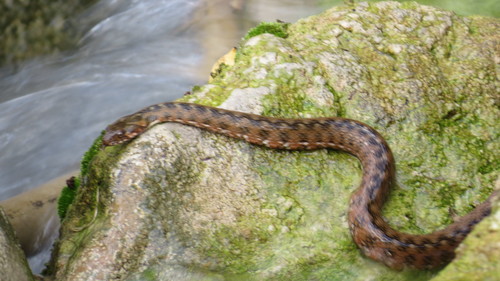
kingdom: Animalia
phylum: Chordata
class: Squamata
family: Colubridae
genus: Natrix
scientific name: Natrix maura
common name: Viperine water snake
